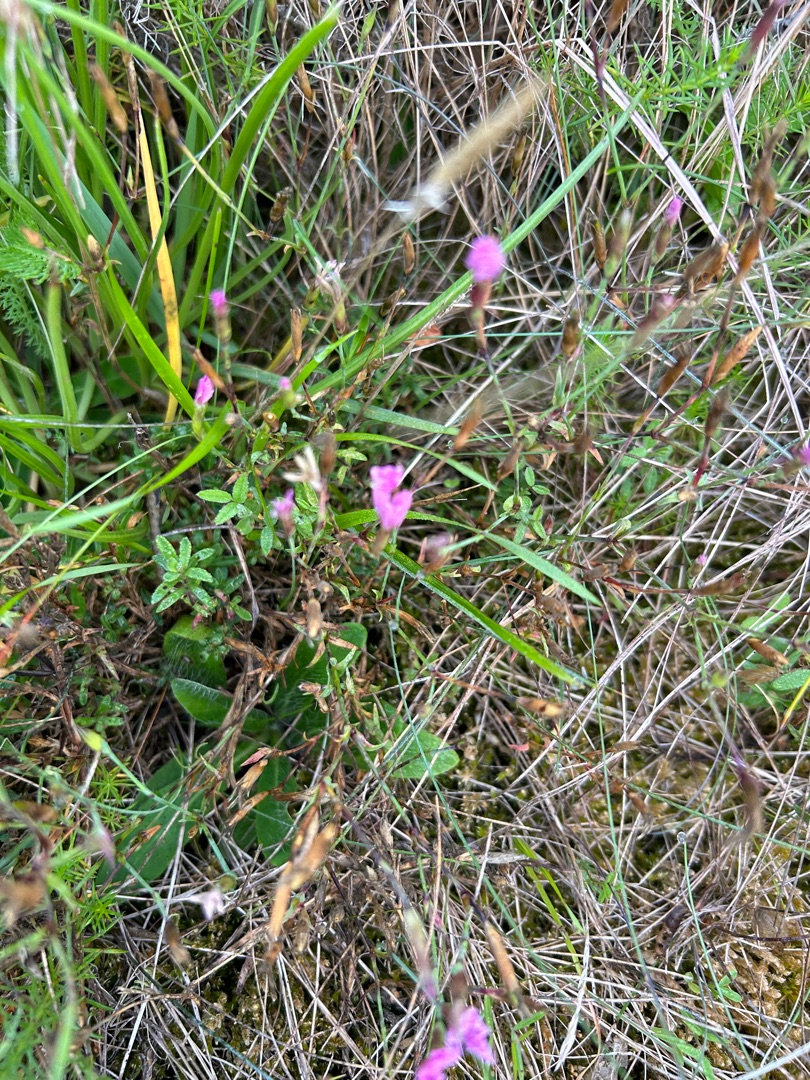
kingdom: Plantae
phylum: Tracheophyta
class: Magnoliopsida
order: Caryophyllales
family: Caryophyllaceae
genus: Dianthus
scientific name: Dianthus deltoides
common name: Bakke-nellike
